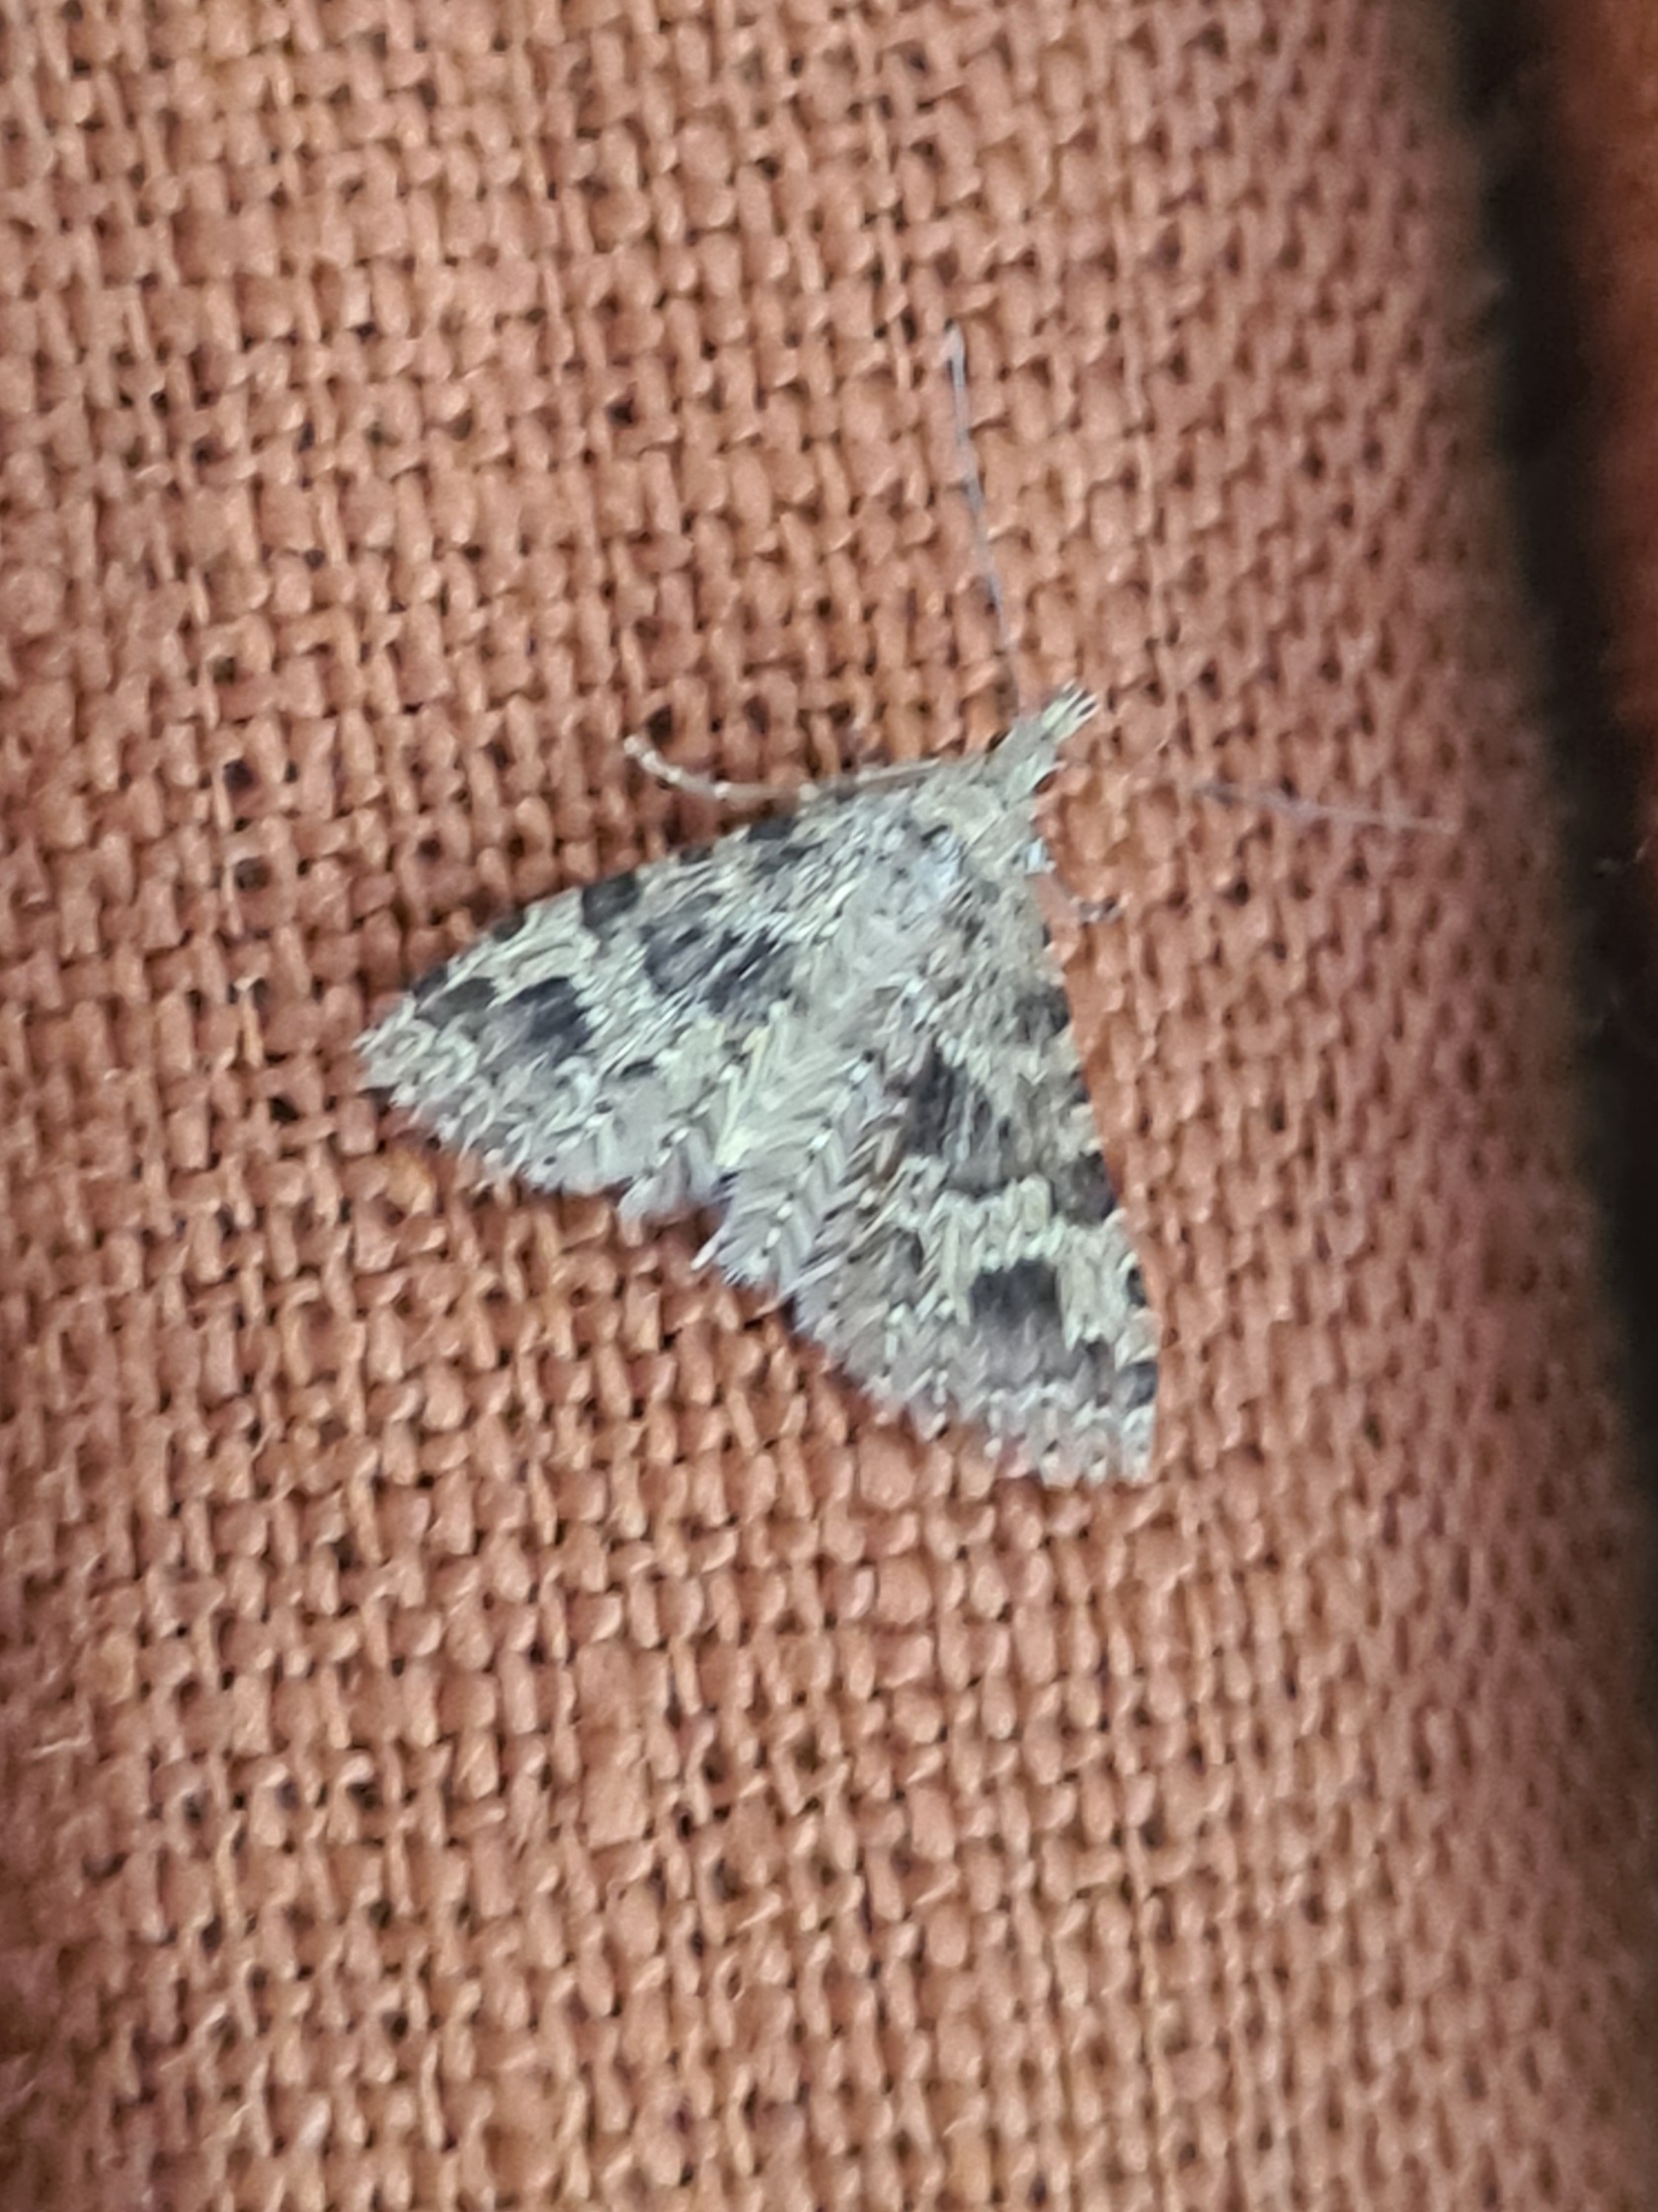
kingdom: Animalia
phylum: Arthropoda
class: Insecta
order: Lepidoptera
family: Alucitidae
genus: Alucita
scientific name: Alucita hexadactyla
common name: Kaprifoliefjermøl
